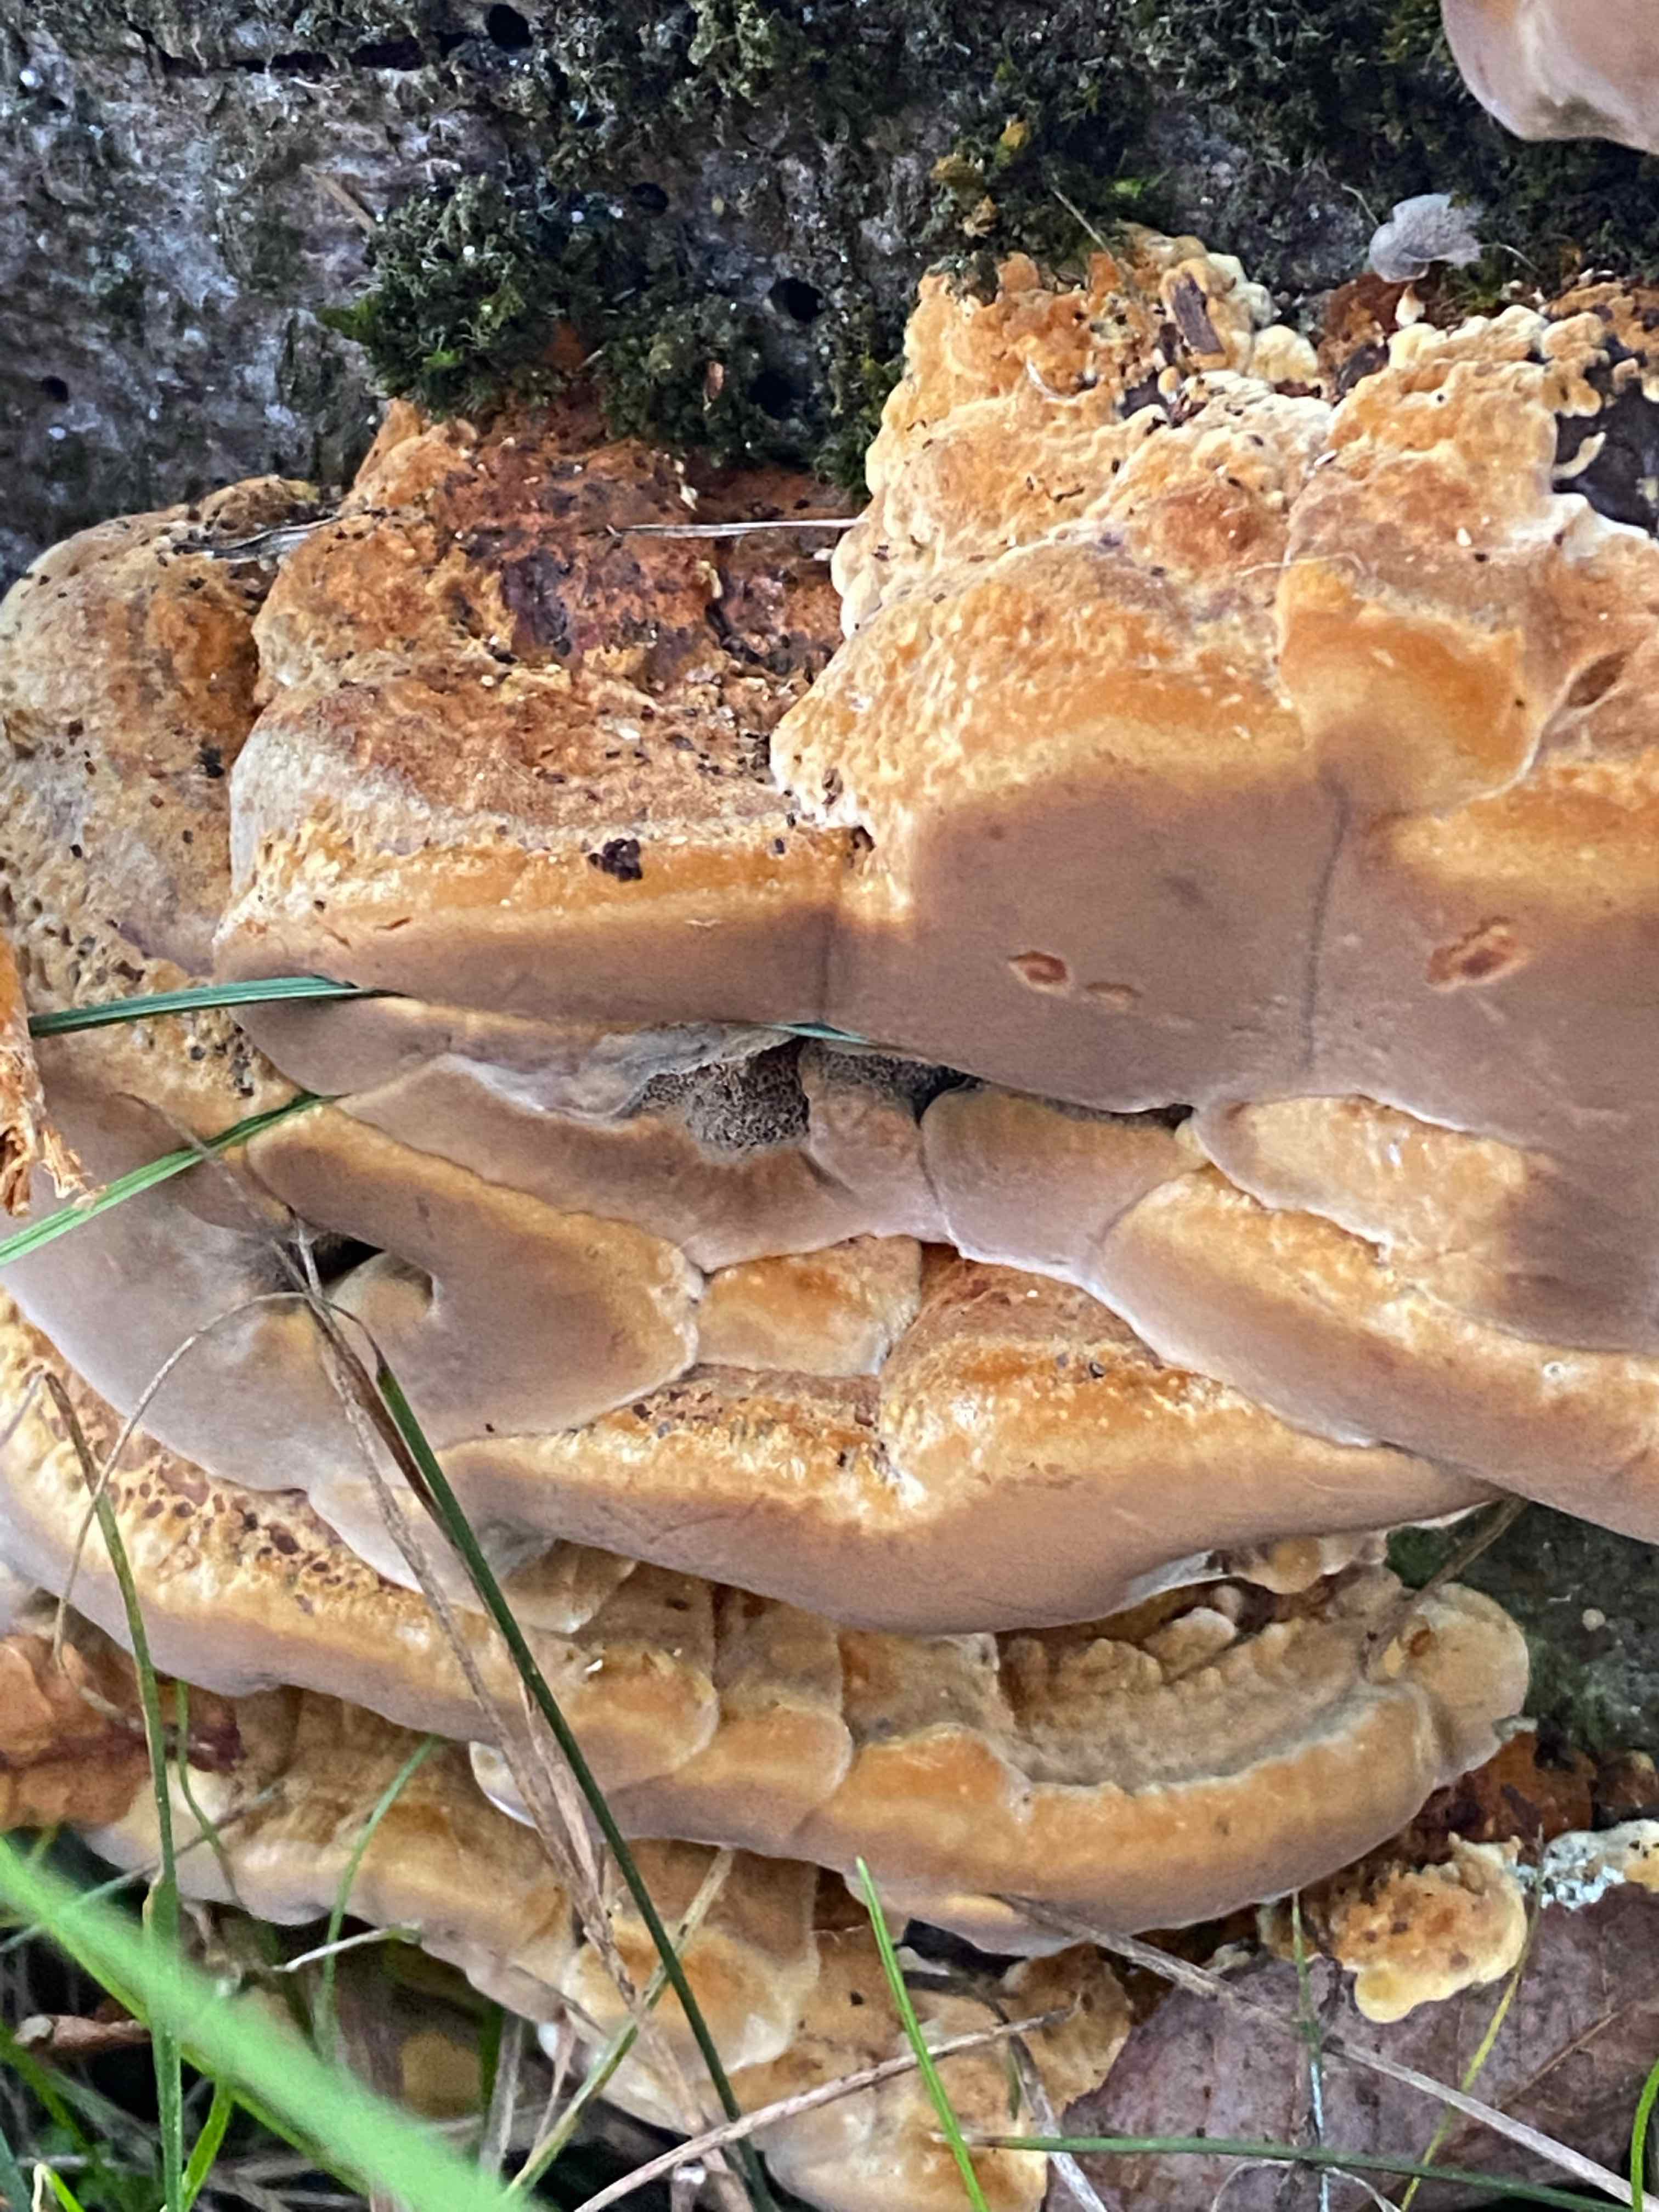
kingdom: Fungi
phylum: Basidiomycota
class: Agaricomycetes
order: Hymenochaetales
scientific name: Hymenochaetales
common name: børstesvampordenen
